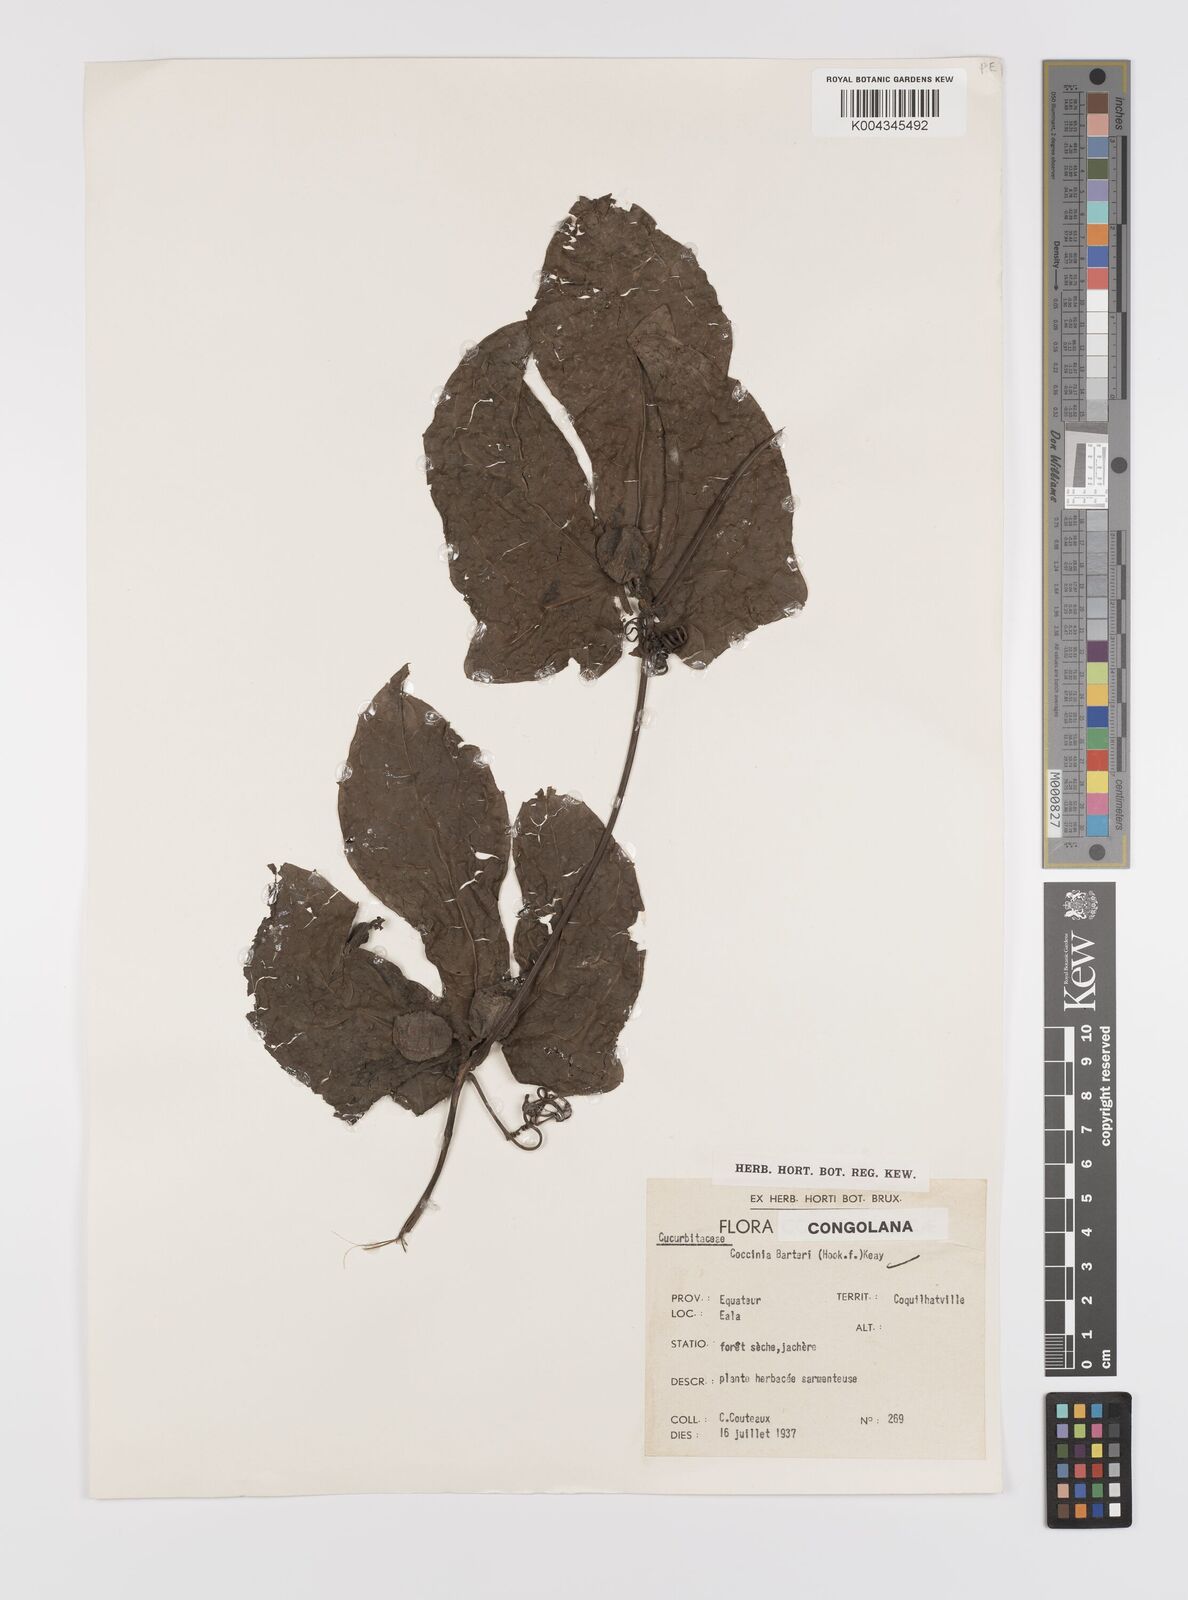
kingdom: Plantae
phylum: Tracheophyta
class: Magnoliopsida
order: Cucurbitales
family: Cucurbitaceae
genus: Coccinia
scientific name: Coccinia barteri
